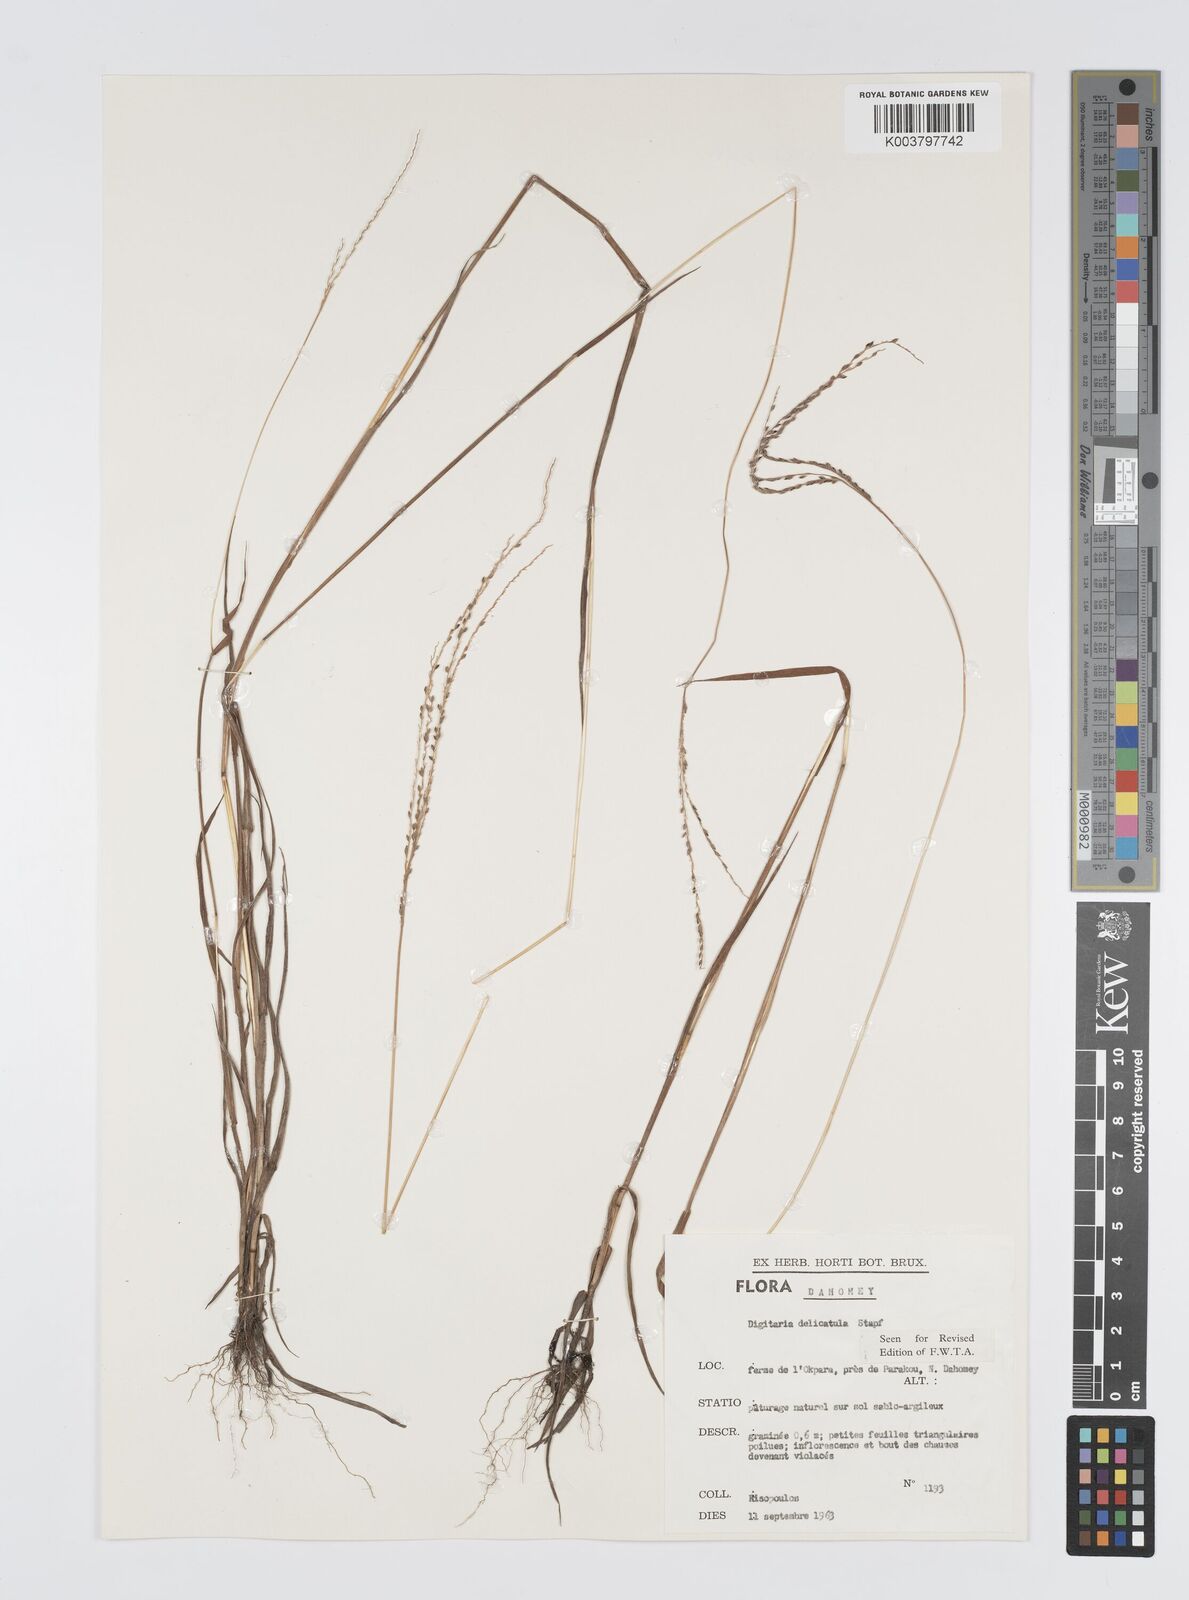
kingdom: Plantae
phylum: Tracheophyta
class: Liliopsida
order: Poales
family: Poaceae
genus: Digitaria
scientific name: Digitaria delicatula
